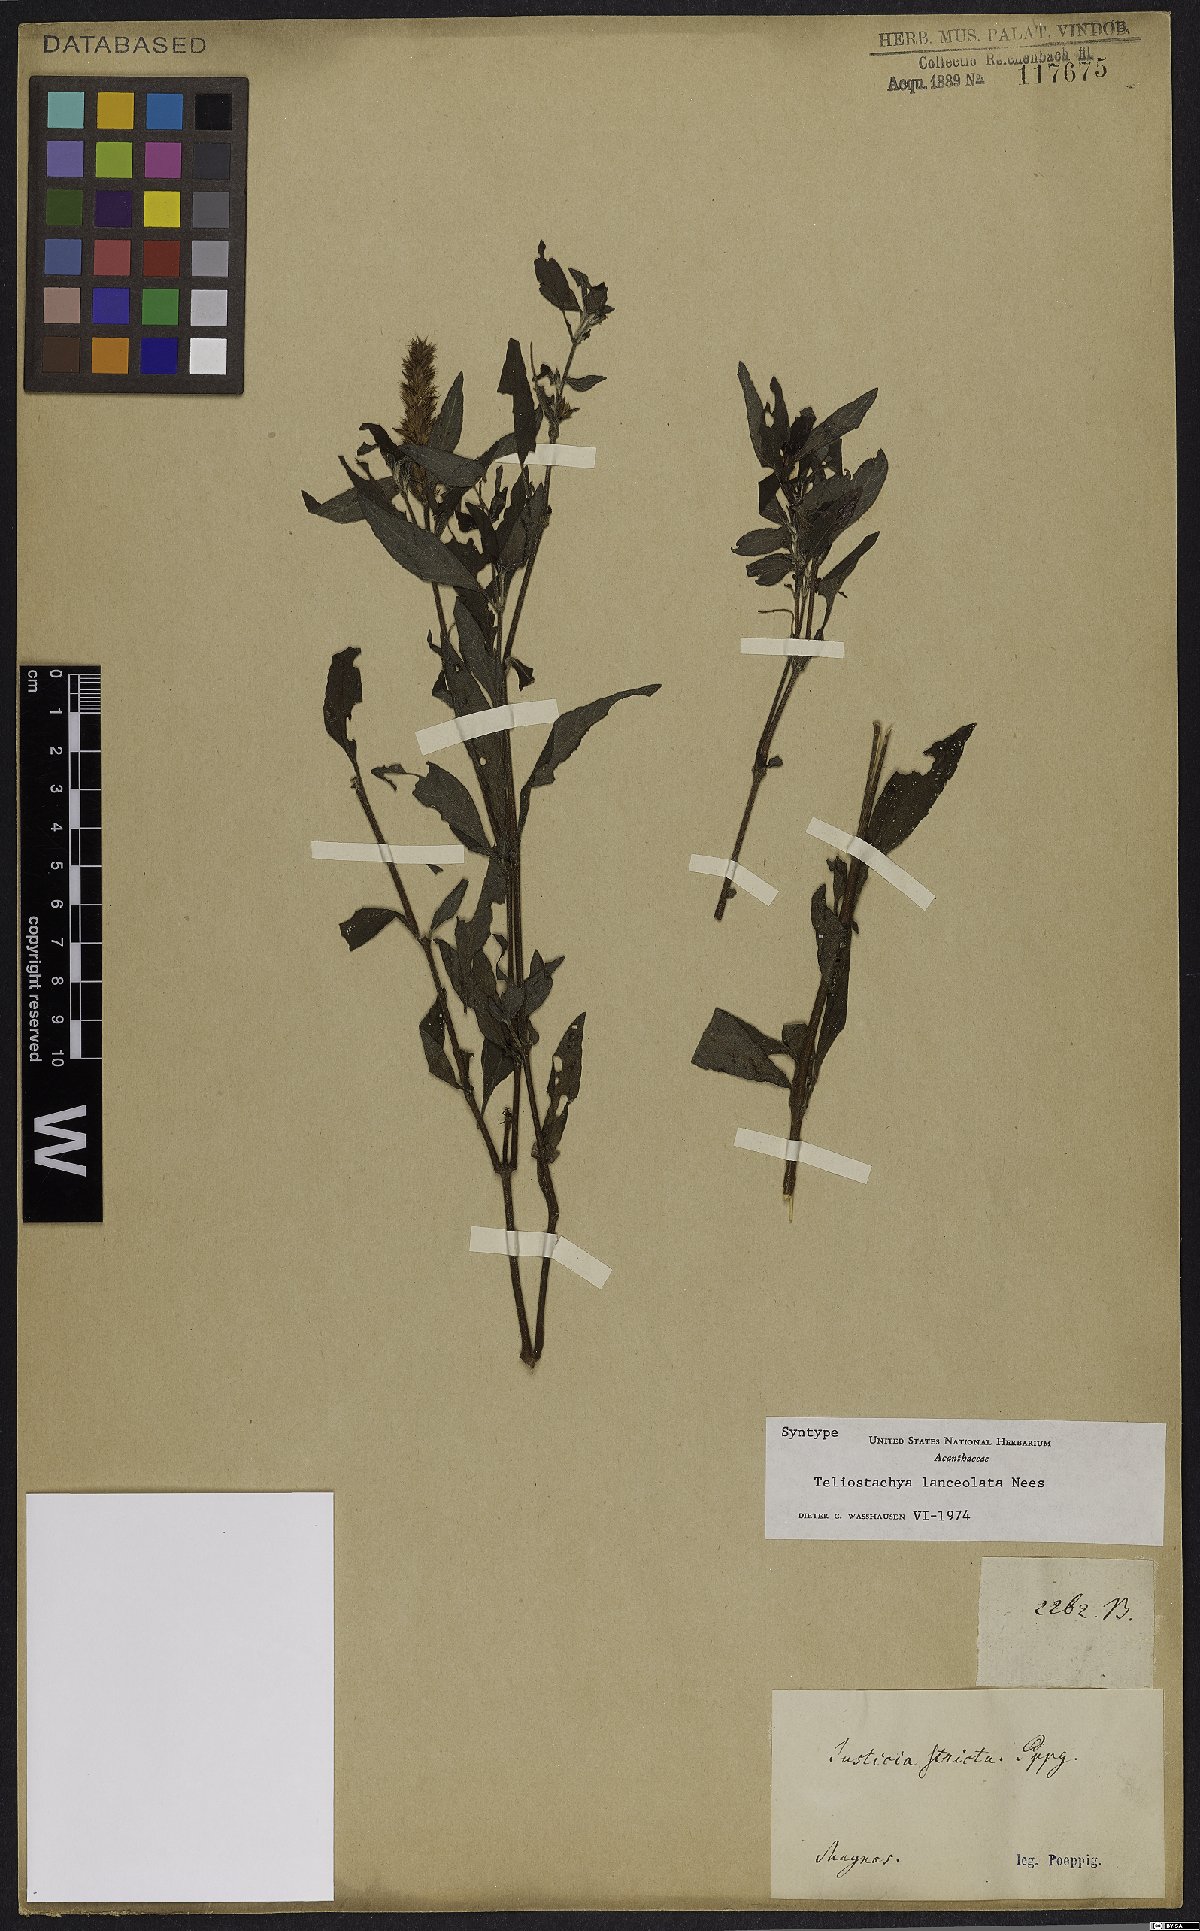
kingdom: Plantae
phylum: Tracheophyta
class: Magnoliopsida
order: Lamiales
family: Acanthaceae
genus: Lepidagathis
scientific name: Lepidagathis alopecuroidea
